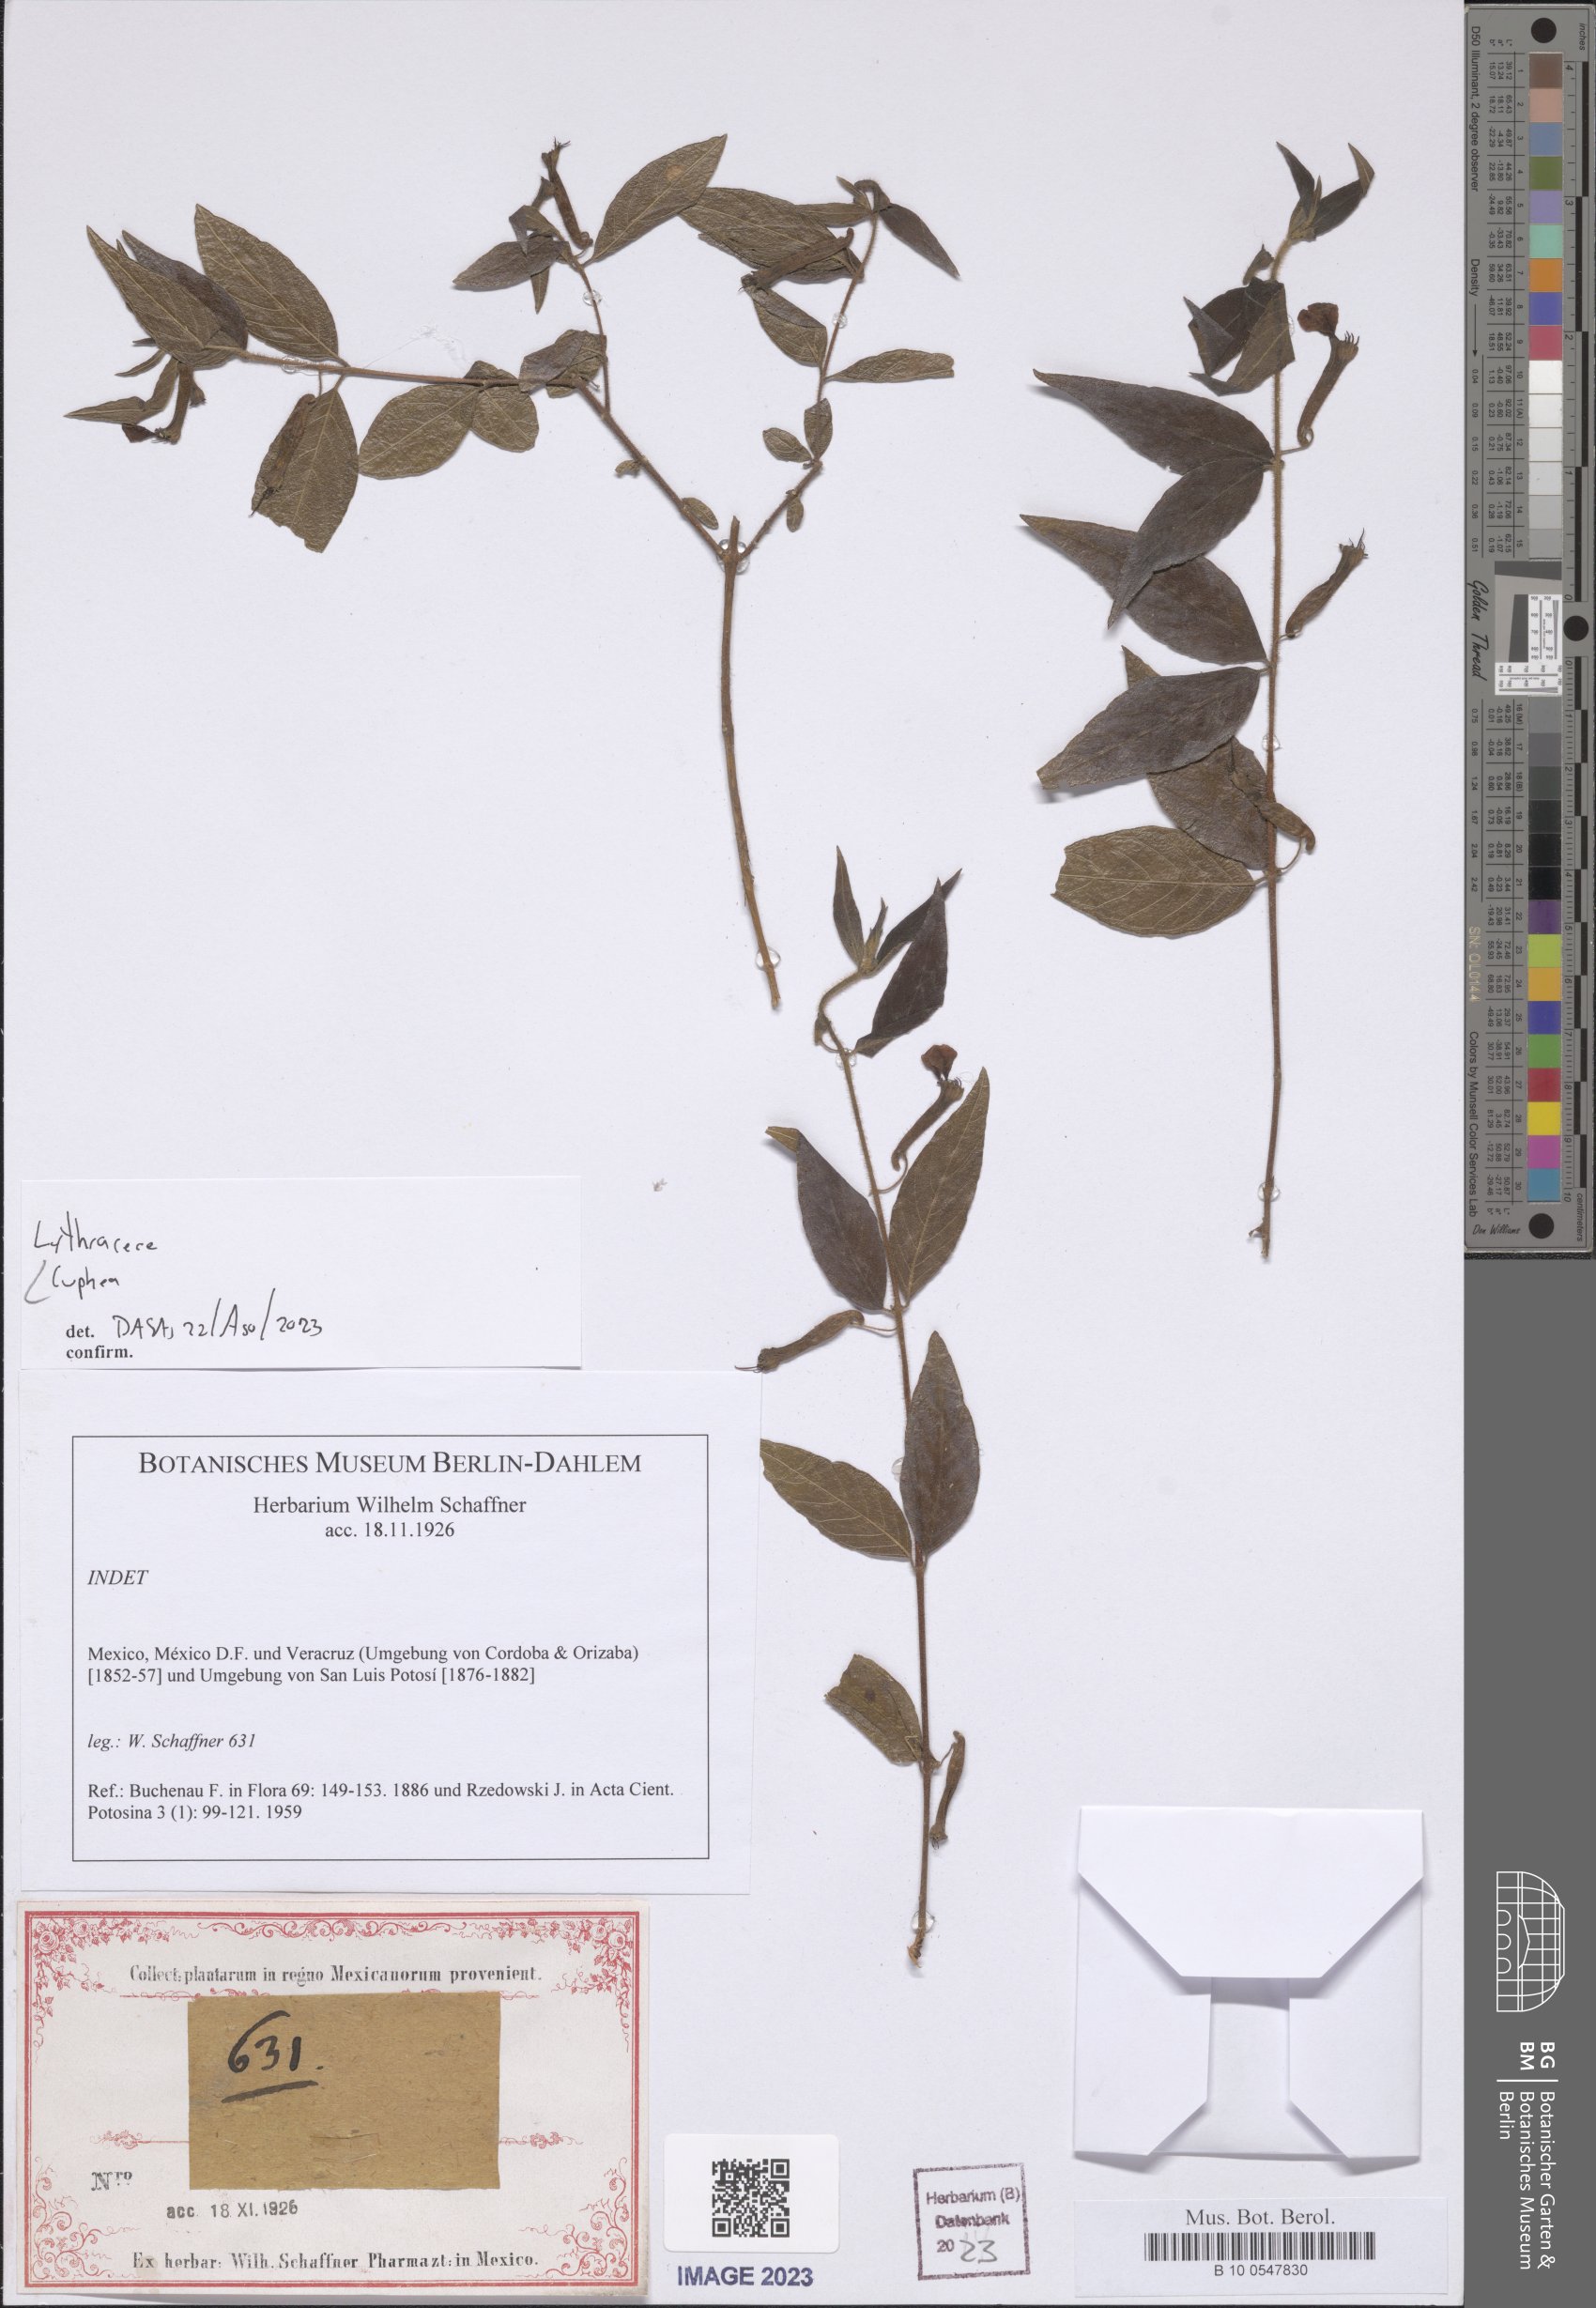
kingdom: Plantae
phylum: Tracheophyta
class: Magnoliopsida
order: Myrtales
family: Lythraceae
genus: Cuphea
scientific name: Cuphea
